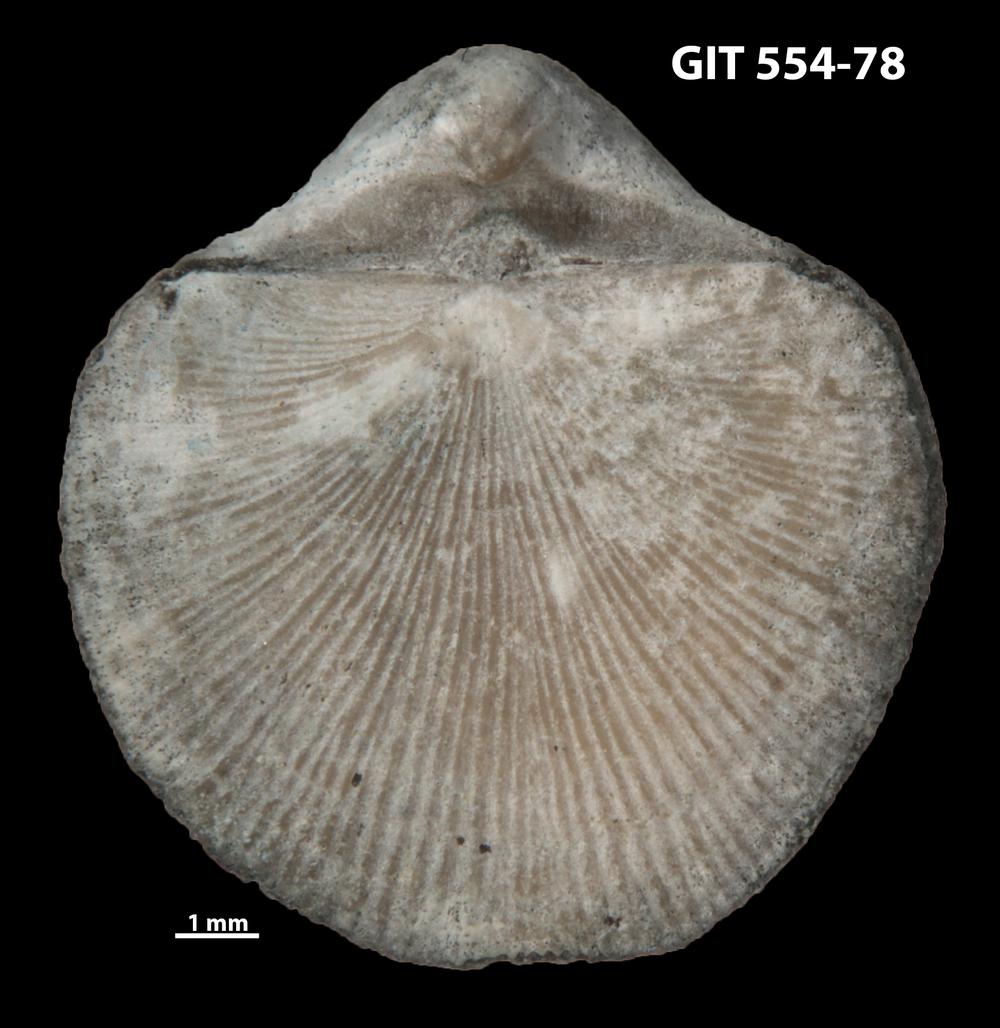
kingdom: Animalia
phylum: Brachiopoda
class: Rhynchonellata
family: Dalmanellidae
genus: Visbyella
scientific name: Visbyella pygmae
